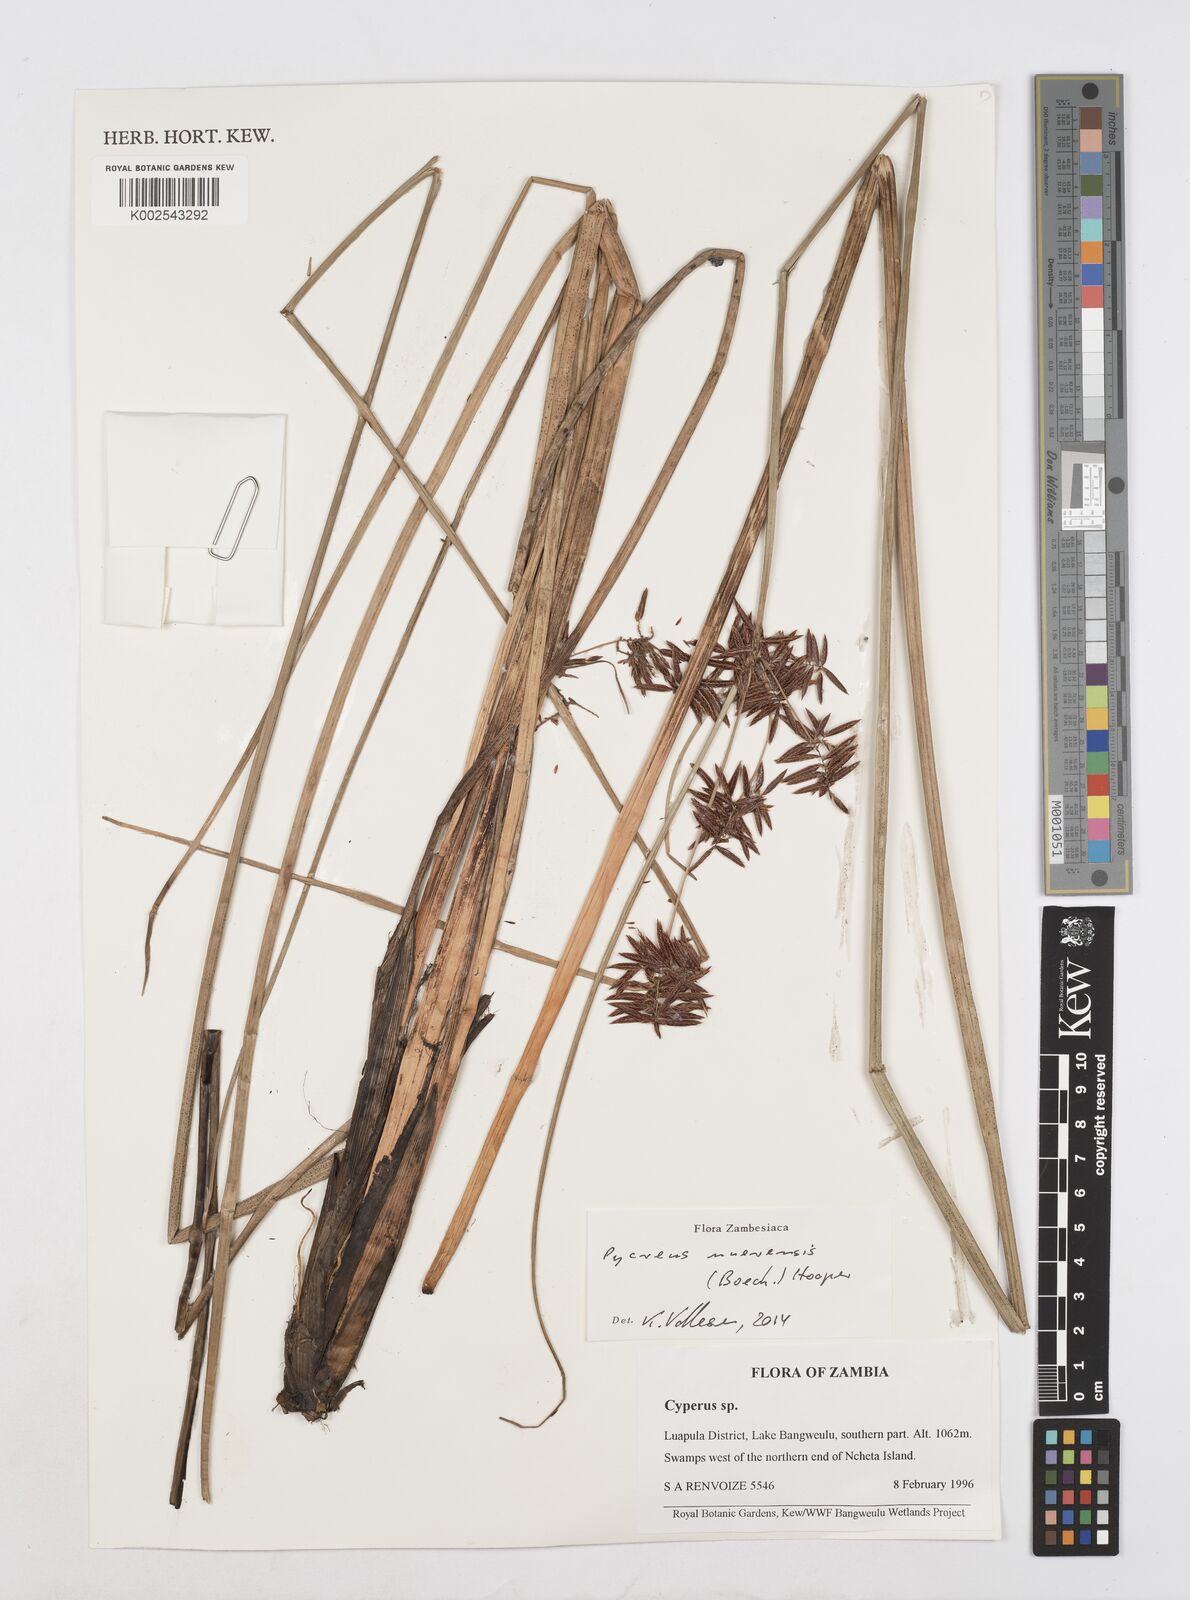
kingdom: Plantae
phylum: Tracheophyta
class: Liliopsida
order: Poales
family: Cyperaceae
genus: Cyperus
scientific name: Cyperus nuerensis
